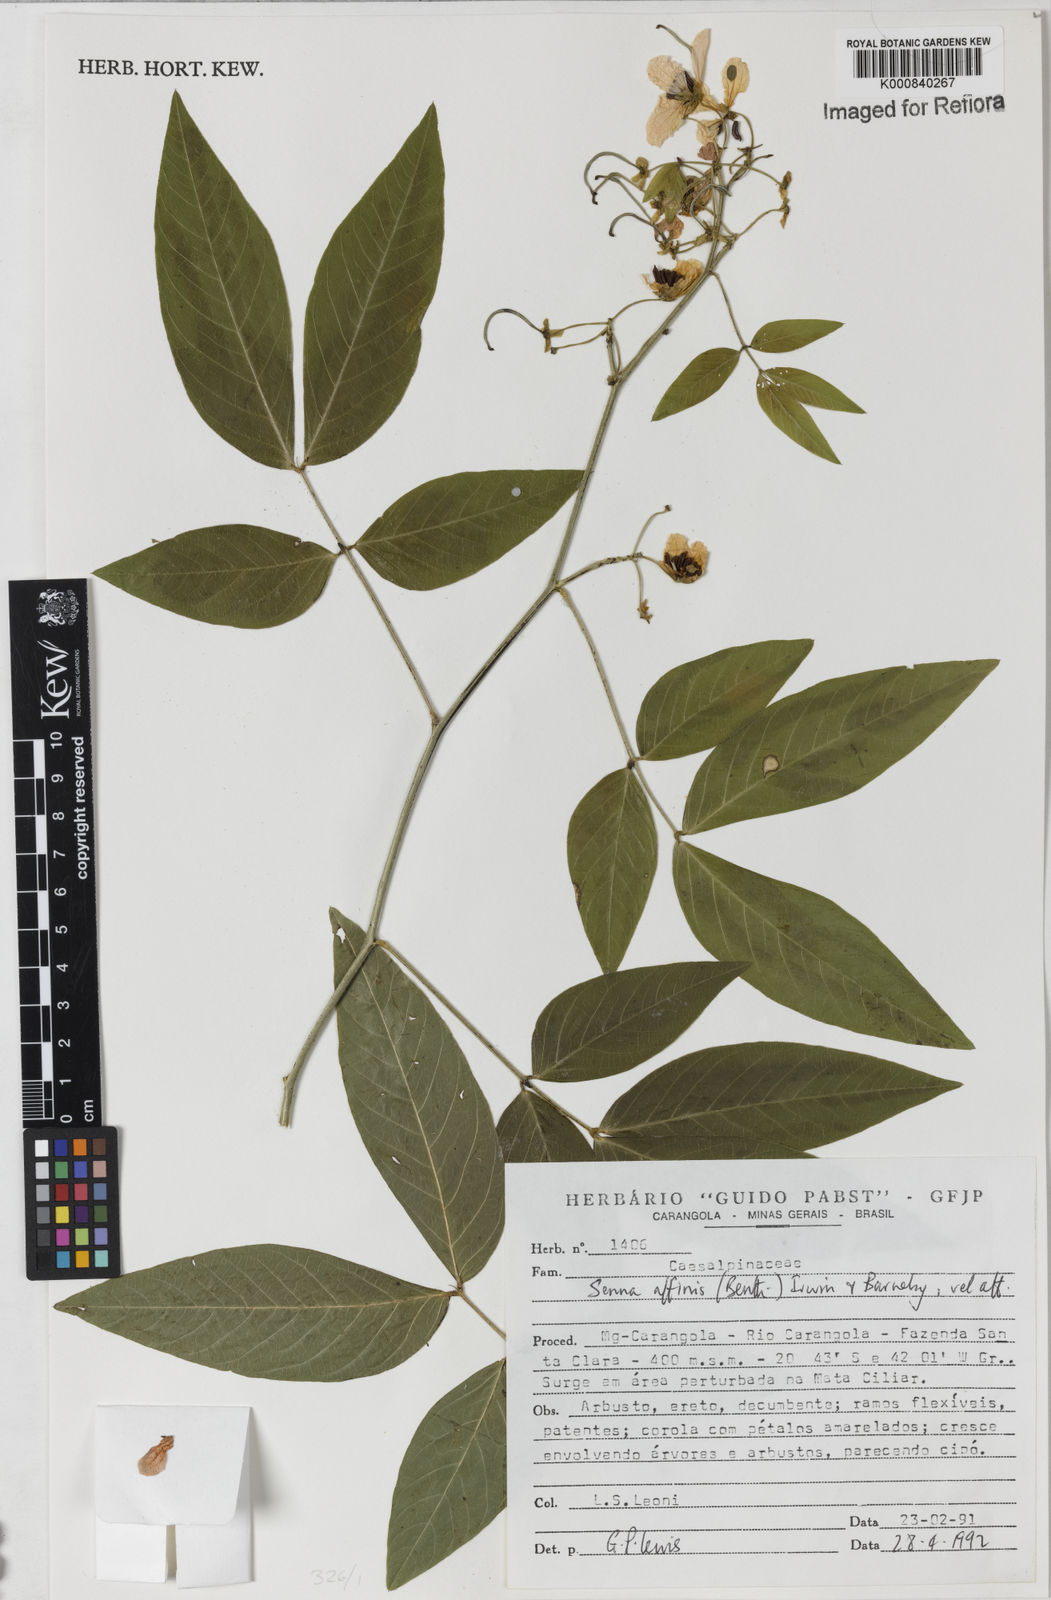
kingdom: Plantae
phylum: Tracheophyta
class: Magnoliopsida
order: Fabales
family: Fabaceae
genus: Senna
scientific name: Senna affinis
